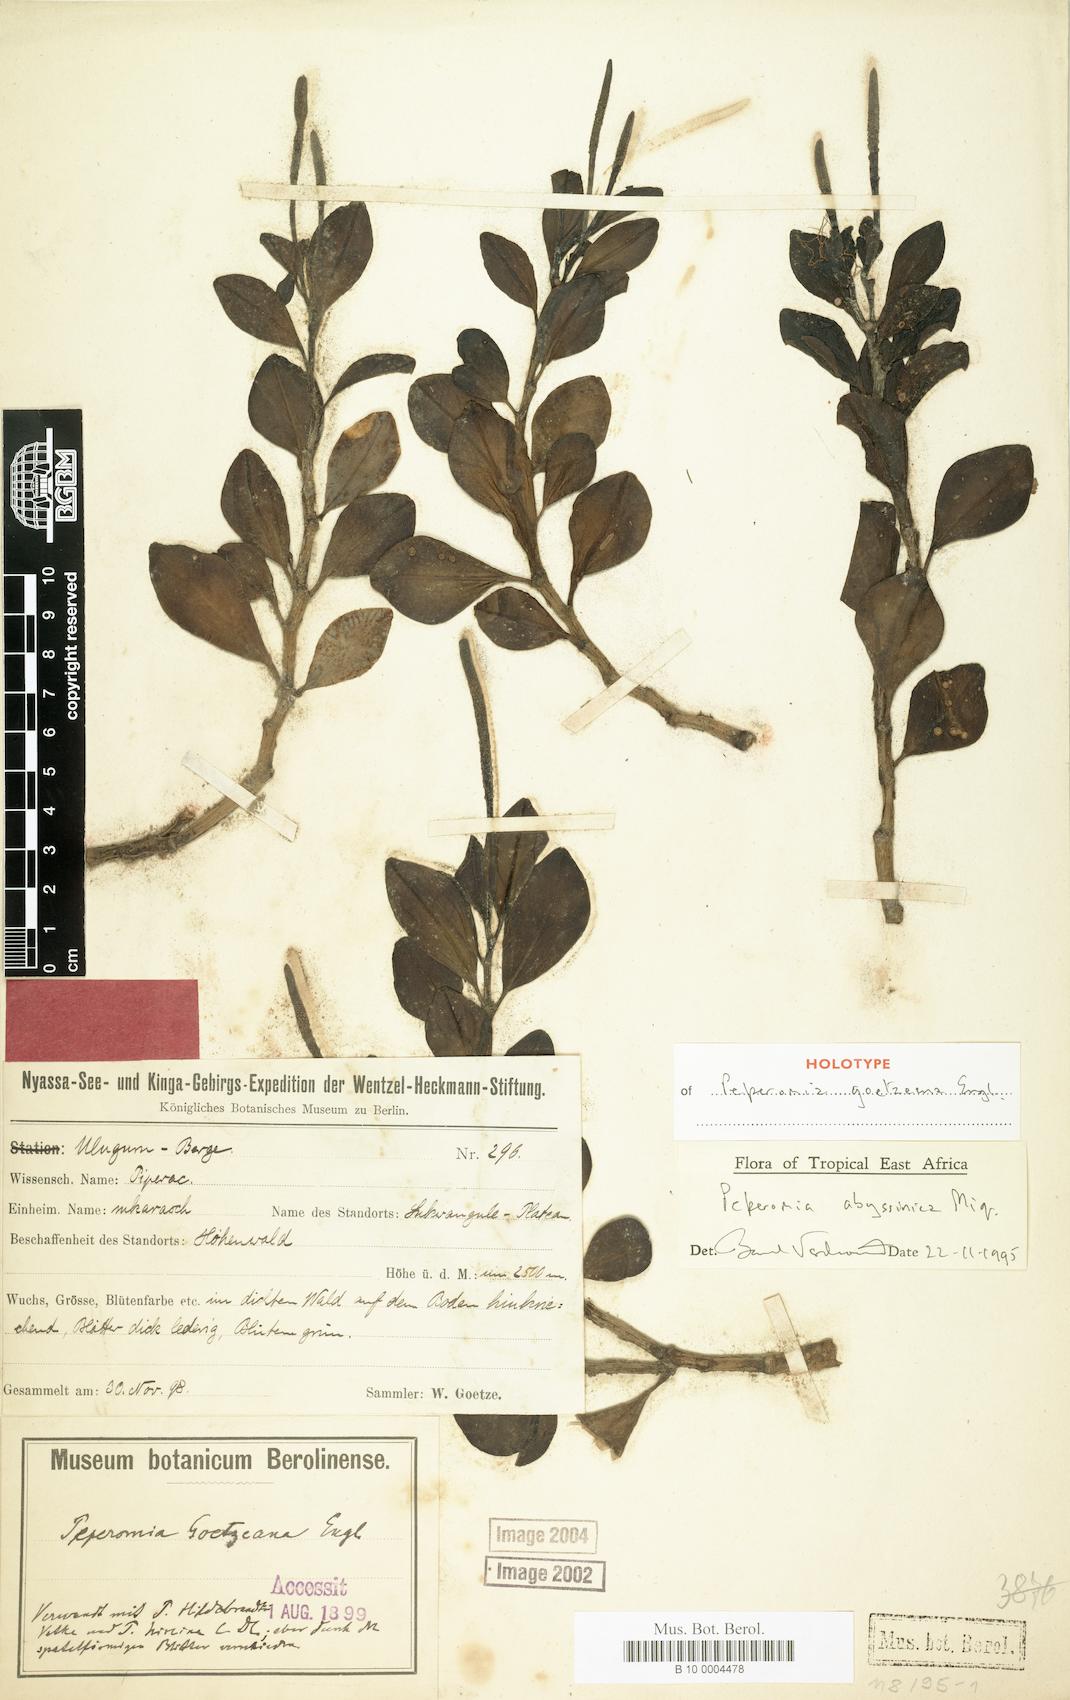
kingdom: Plantae
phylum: Tracheophyta
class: Magnoliopsida
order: Piperales
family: Piperaceae
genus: Peperomia
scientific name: Peperomia abyssinica
